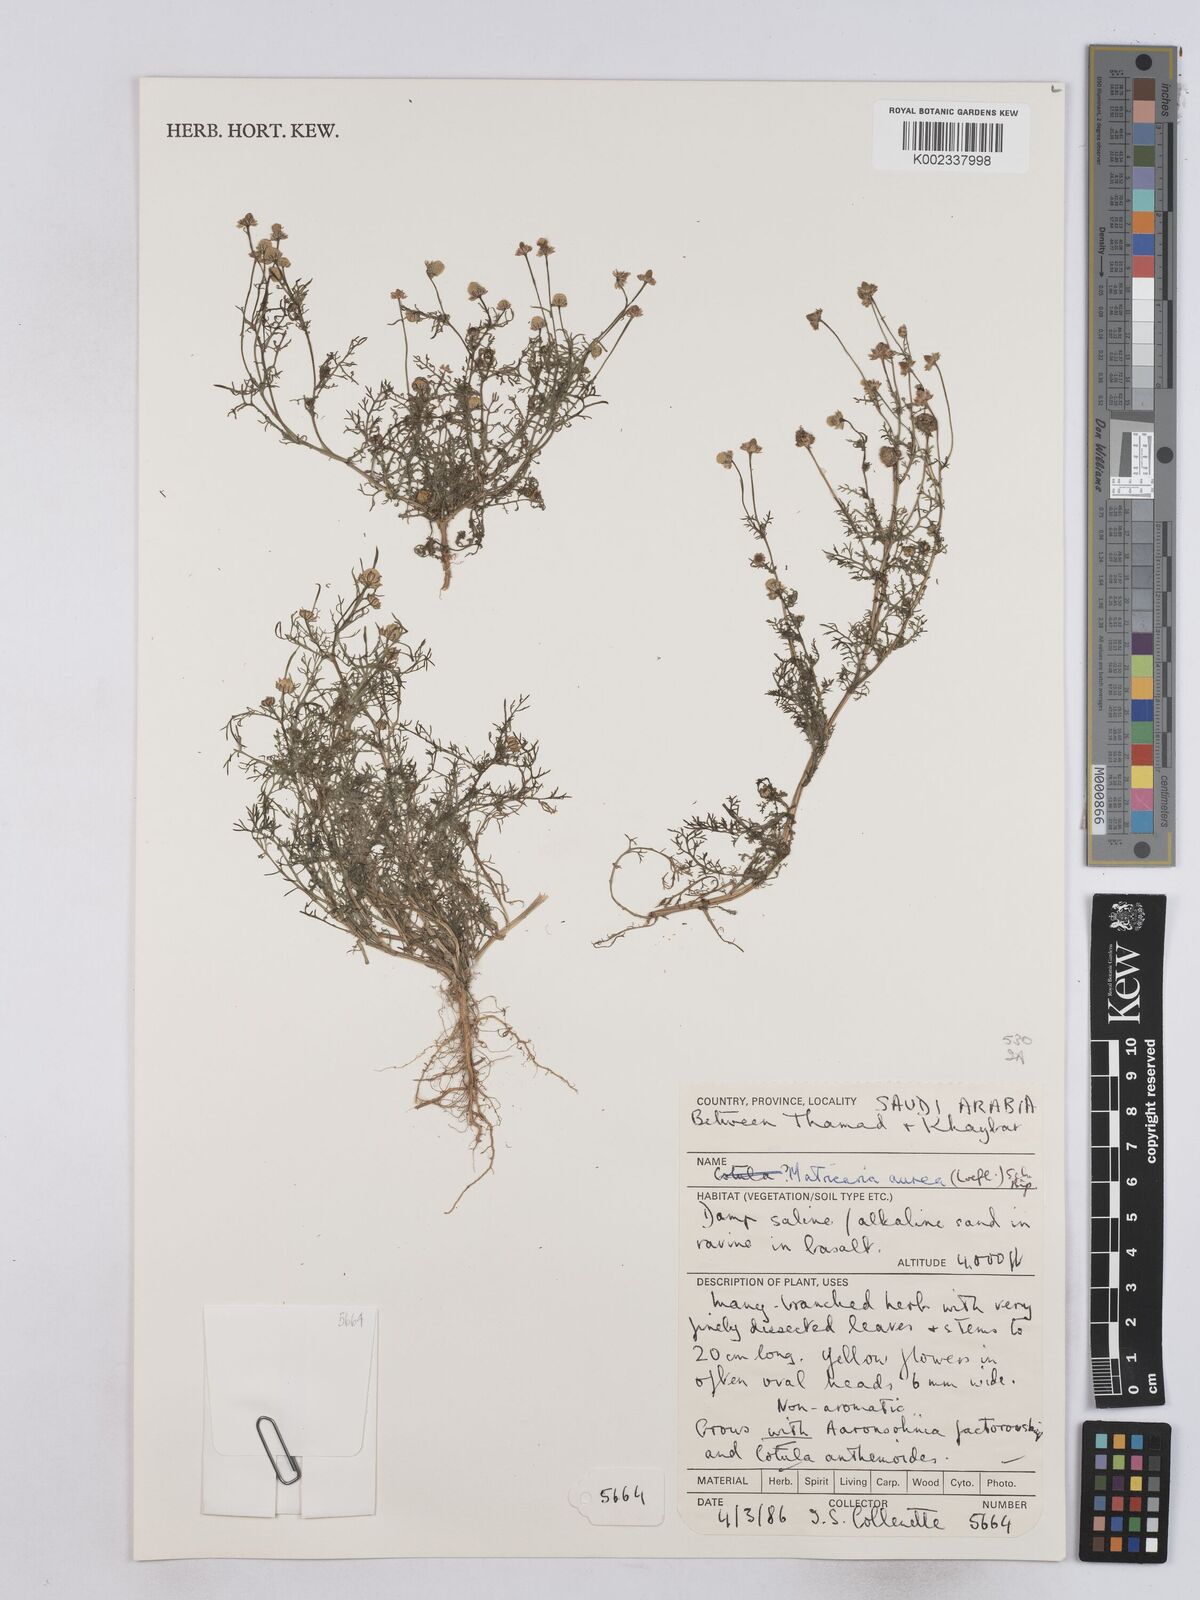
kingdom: Plantae
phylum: Tracheophyta
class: Magnoliopsida
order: Asterales
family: Asteraceae
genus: Matricaria
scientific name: Matricaria aurea
